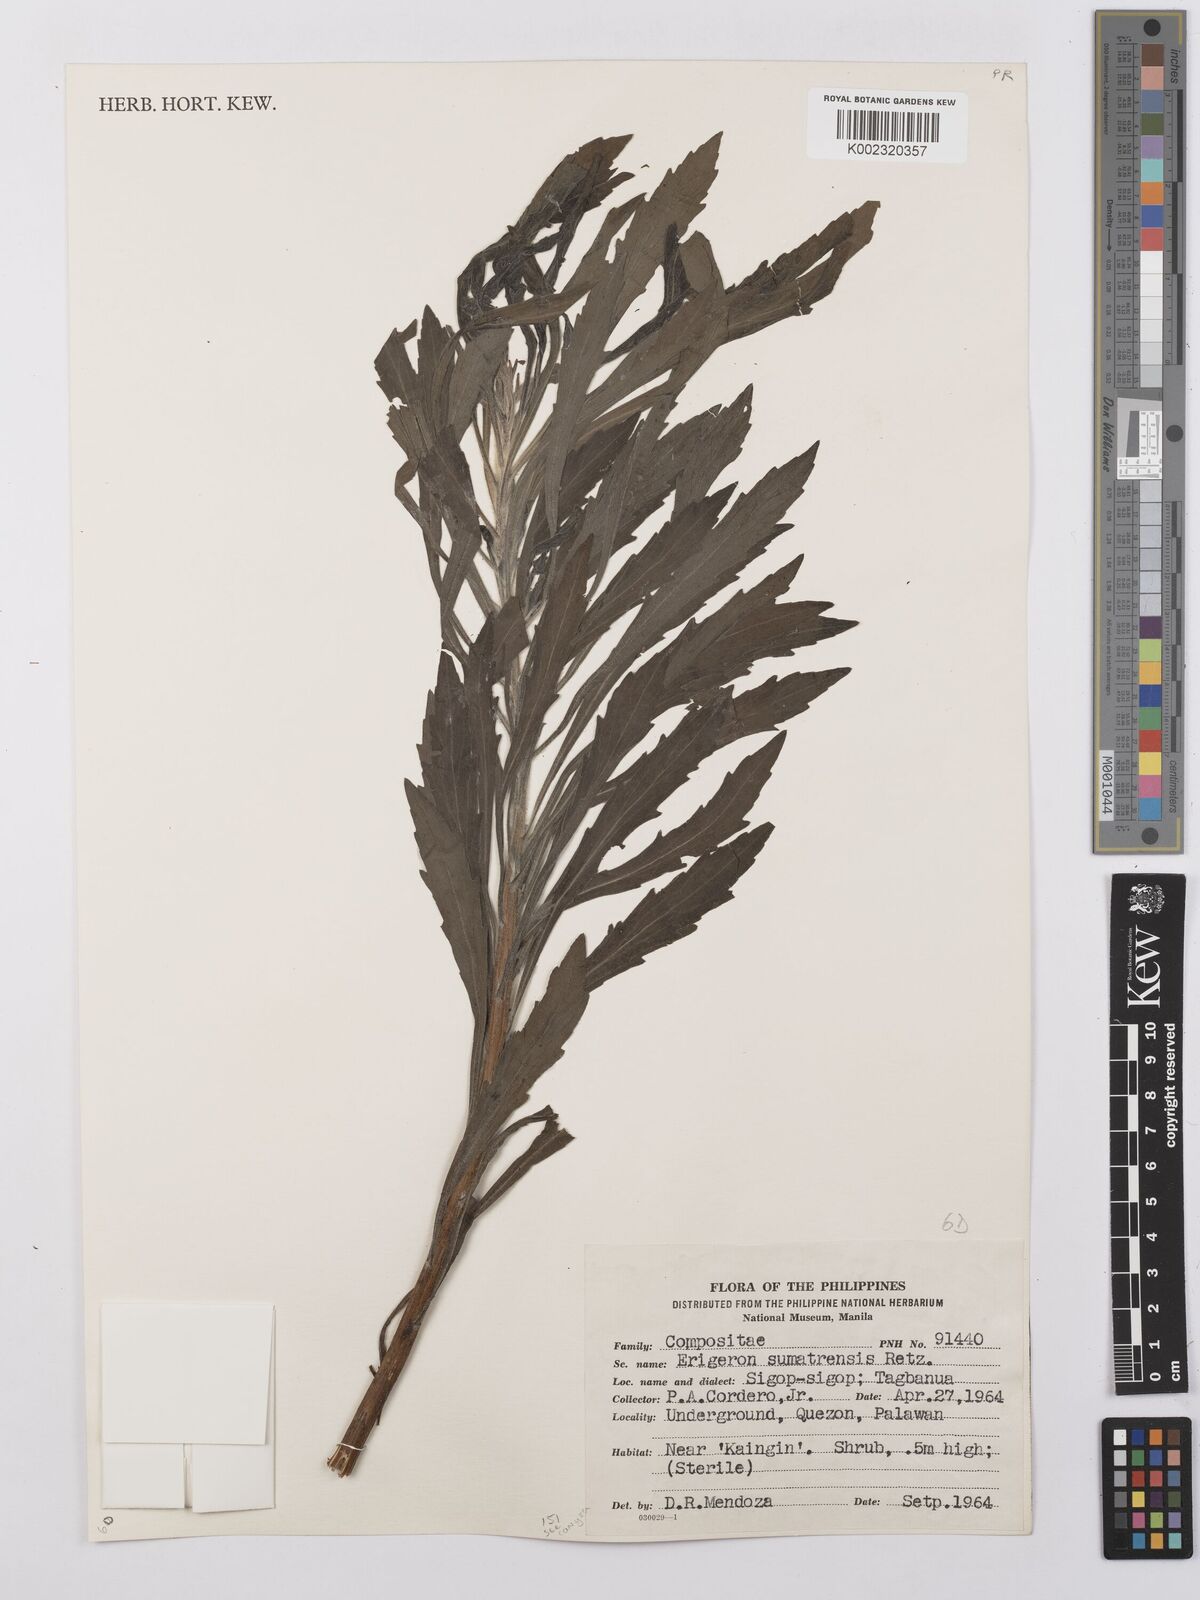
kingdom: Plantae
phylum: Tracheophyta
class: Magnoliopsida
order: Asterales
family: Asteraceae
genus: Erigeron
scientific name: Erigeron sumatrensis
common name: Daisy
